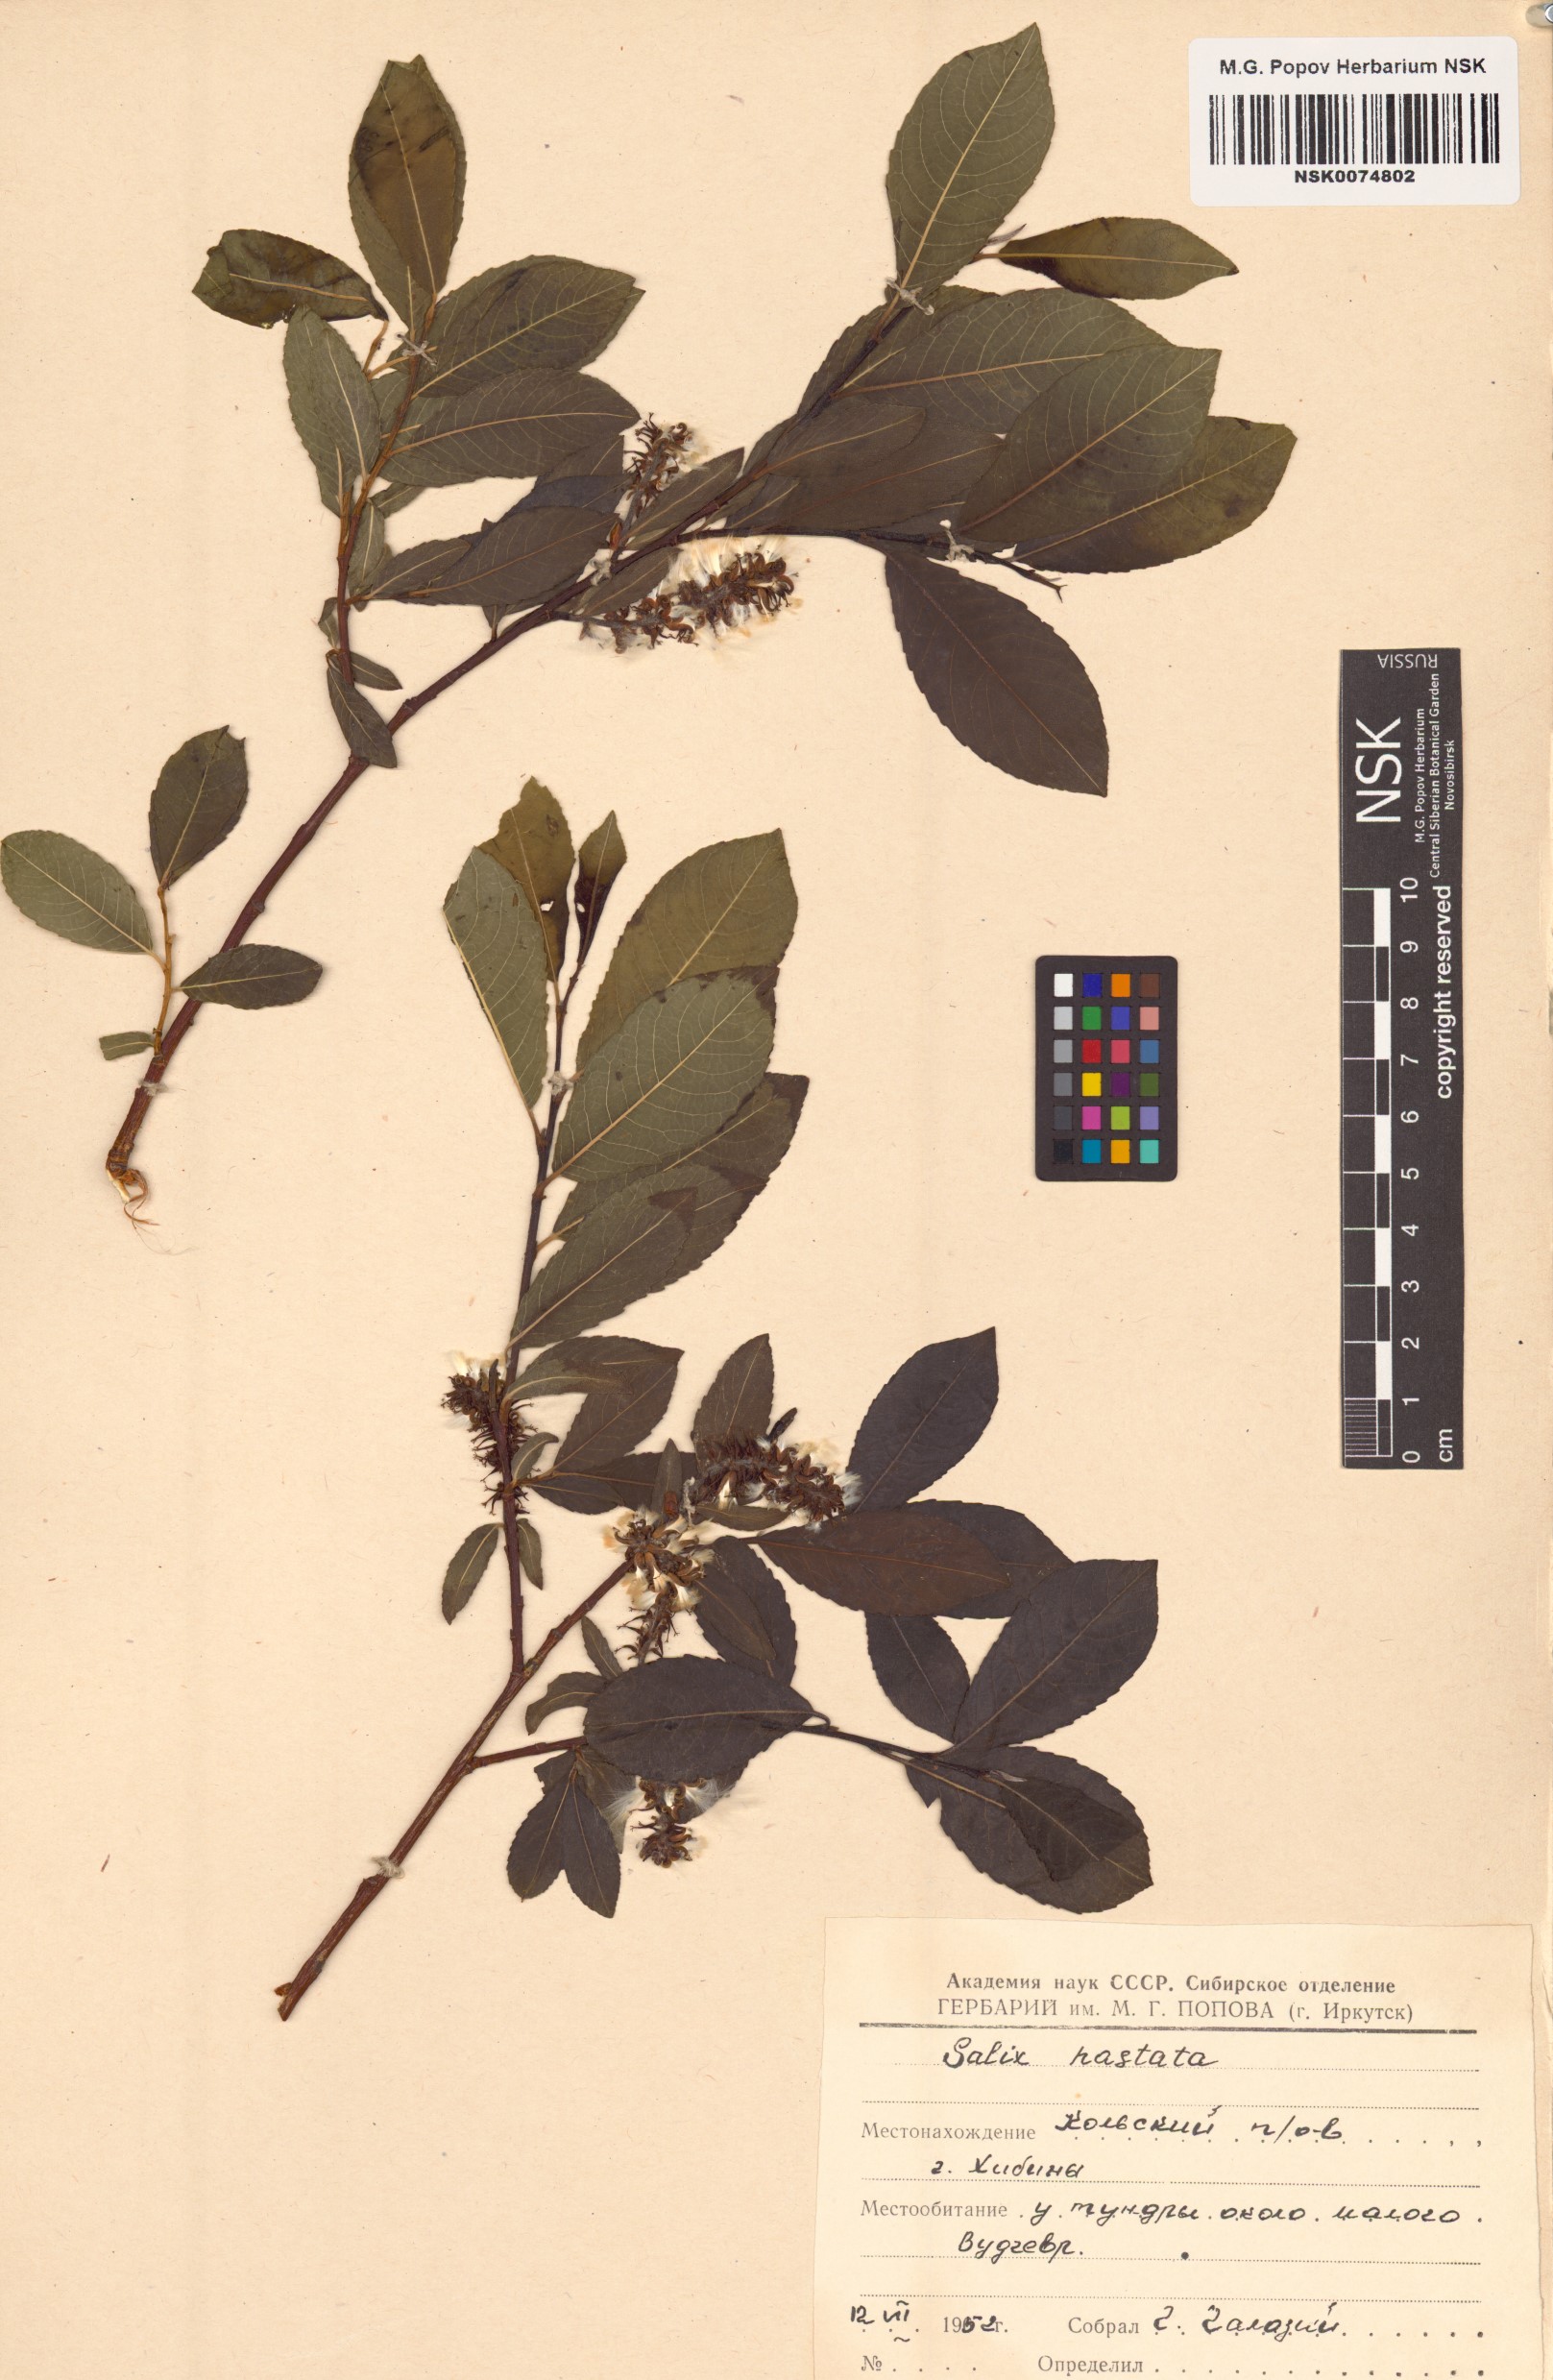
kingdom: Plantae
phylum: Tracheophyta
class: Magnoliopsida
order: Malpighiales
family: Salicaceae
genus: Salix
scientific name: Salix hastata
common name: Halberd willow
